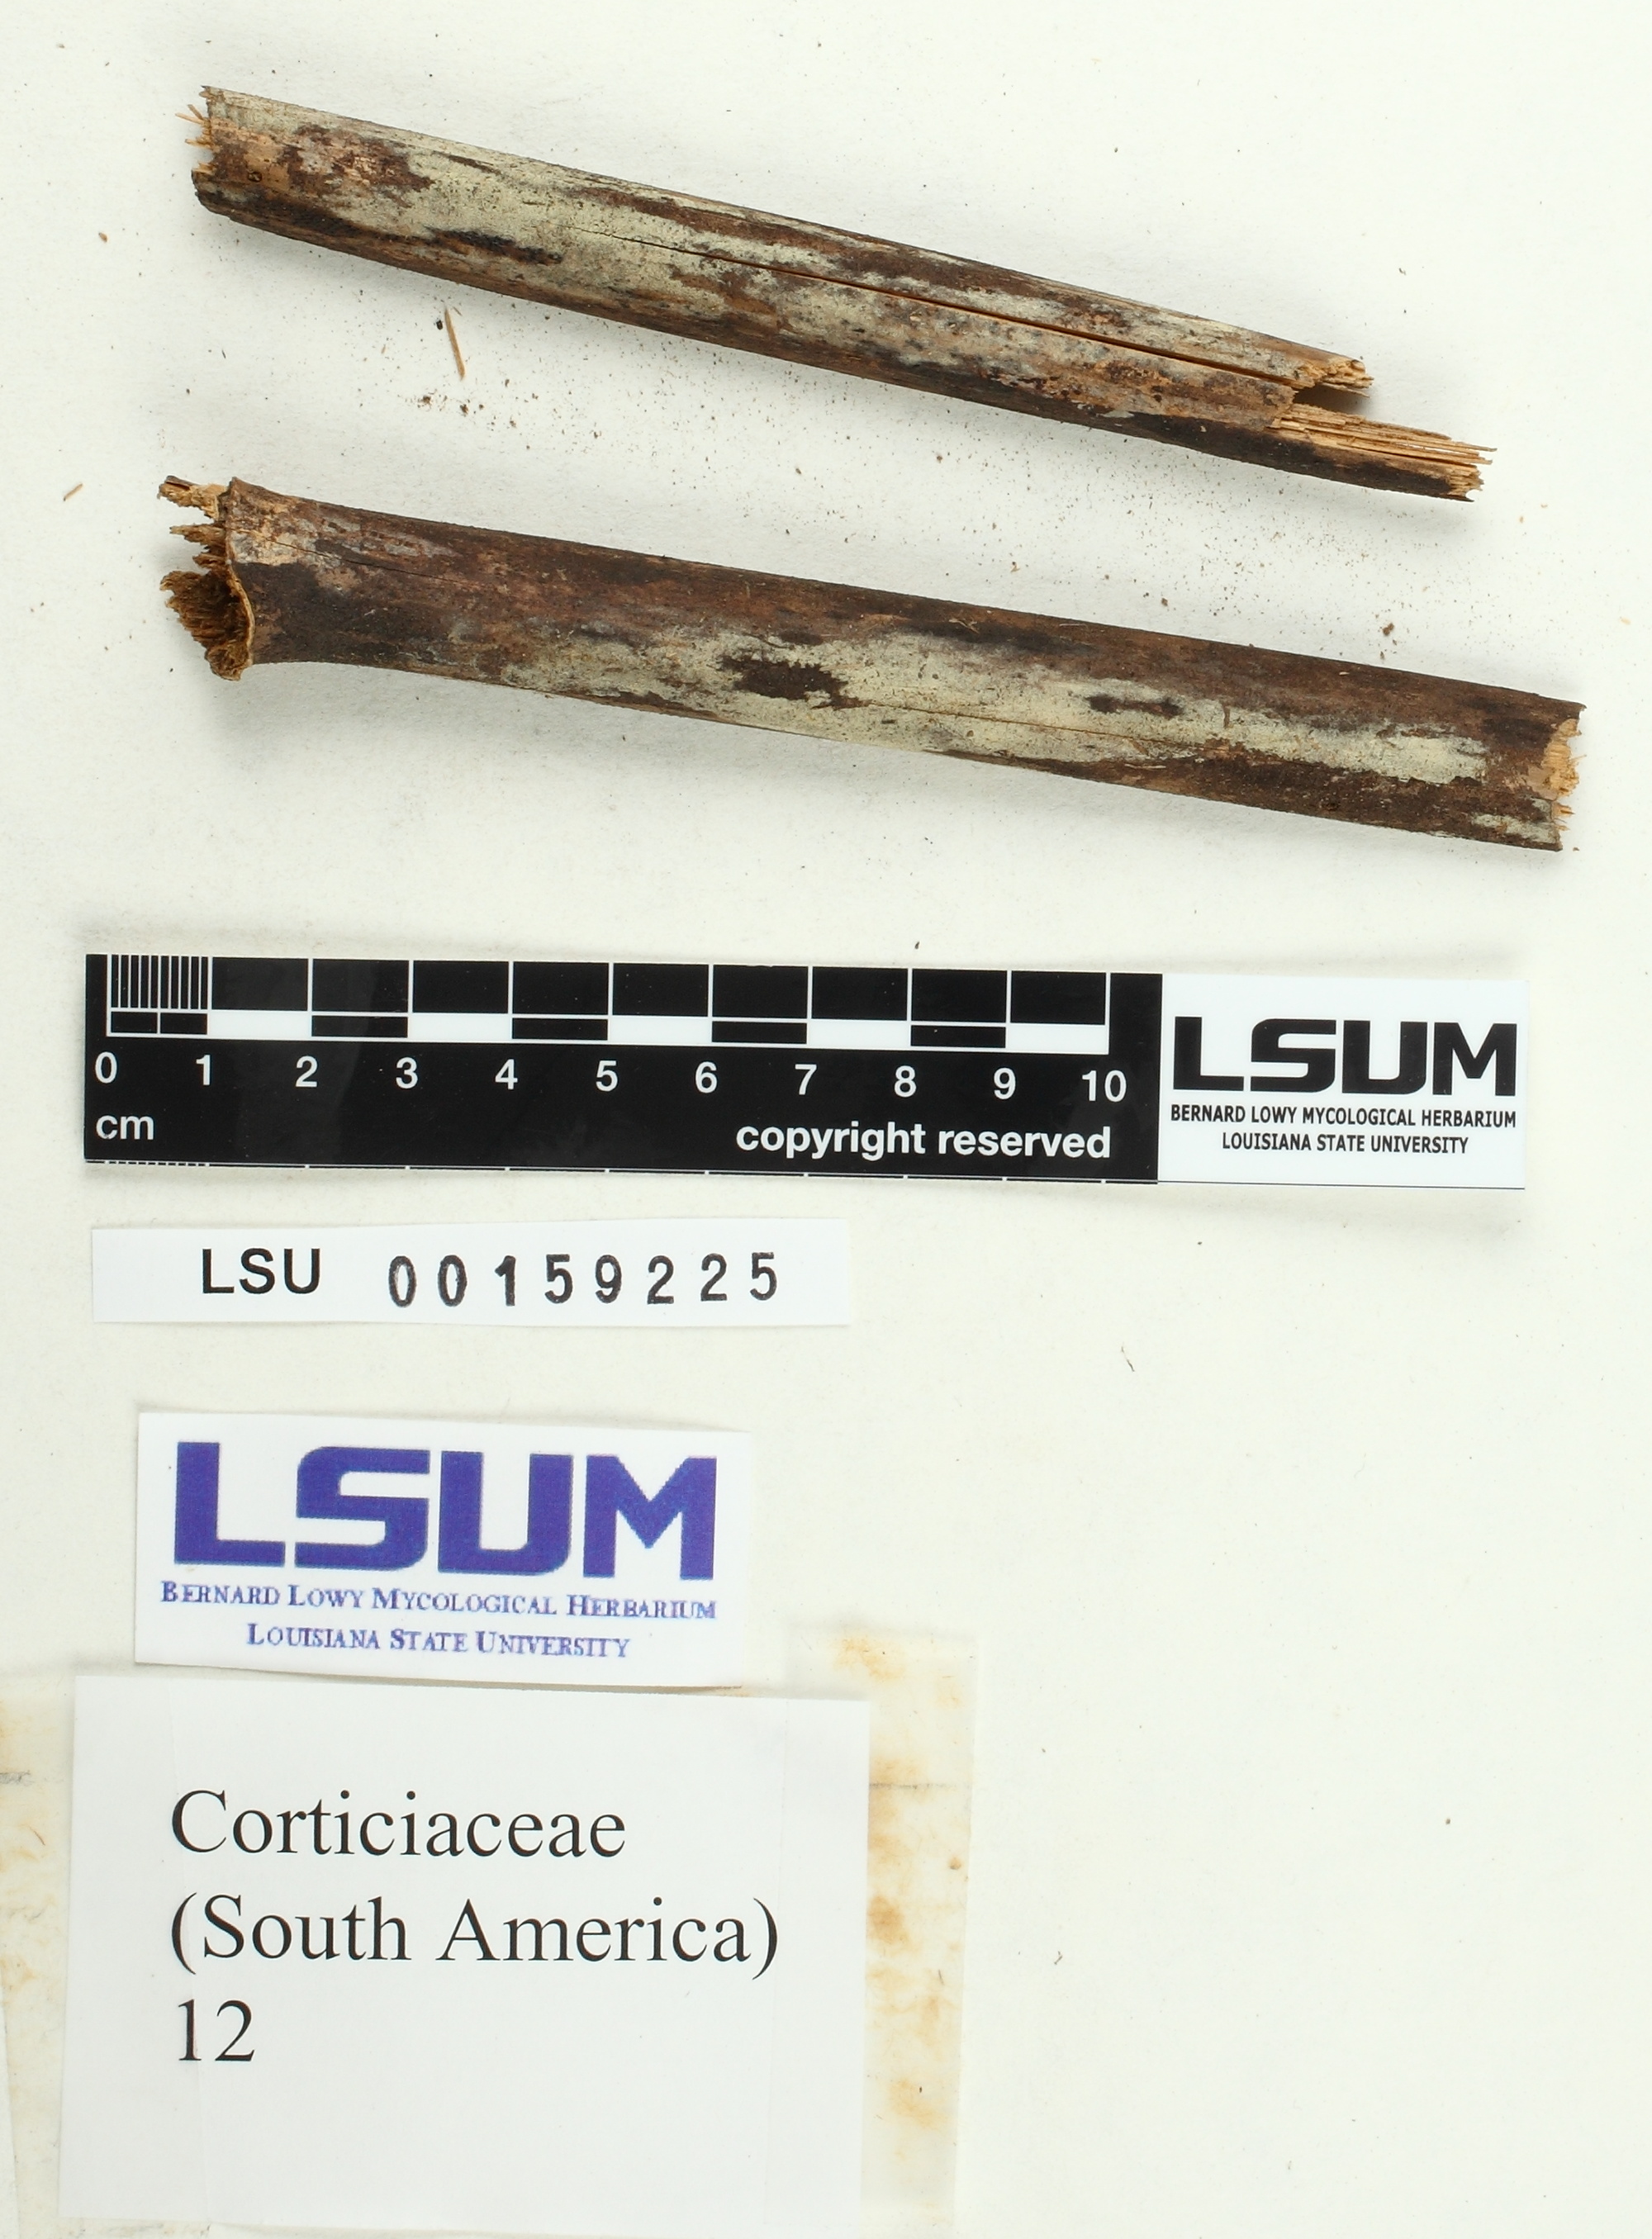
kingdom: Fungi
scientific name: Fungi
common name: Fungi
